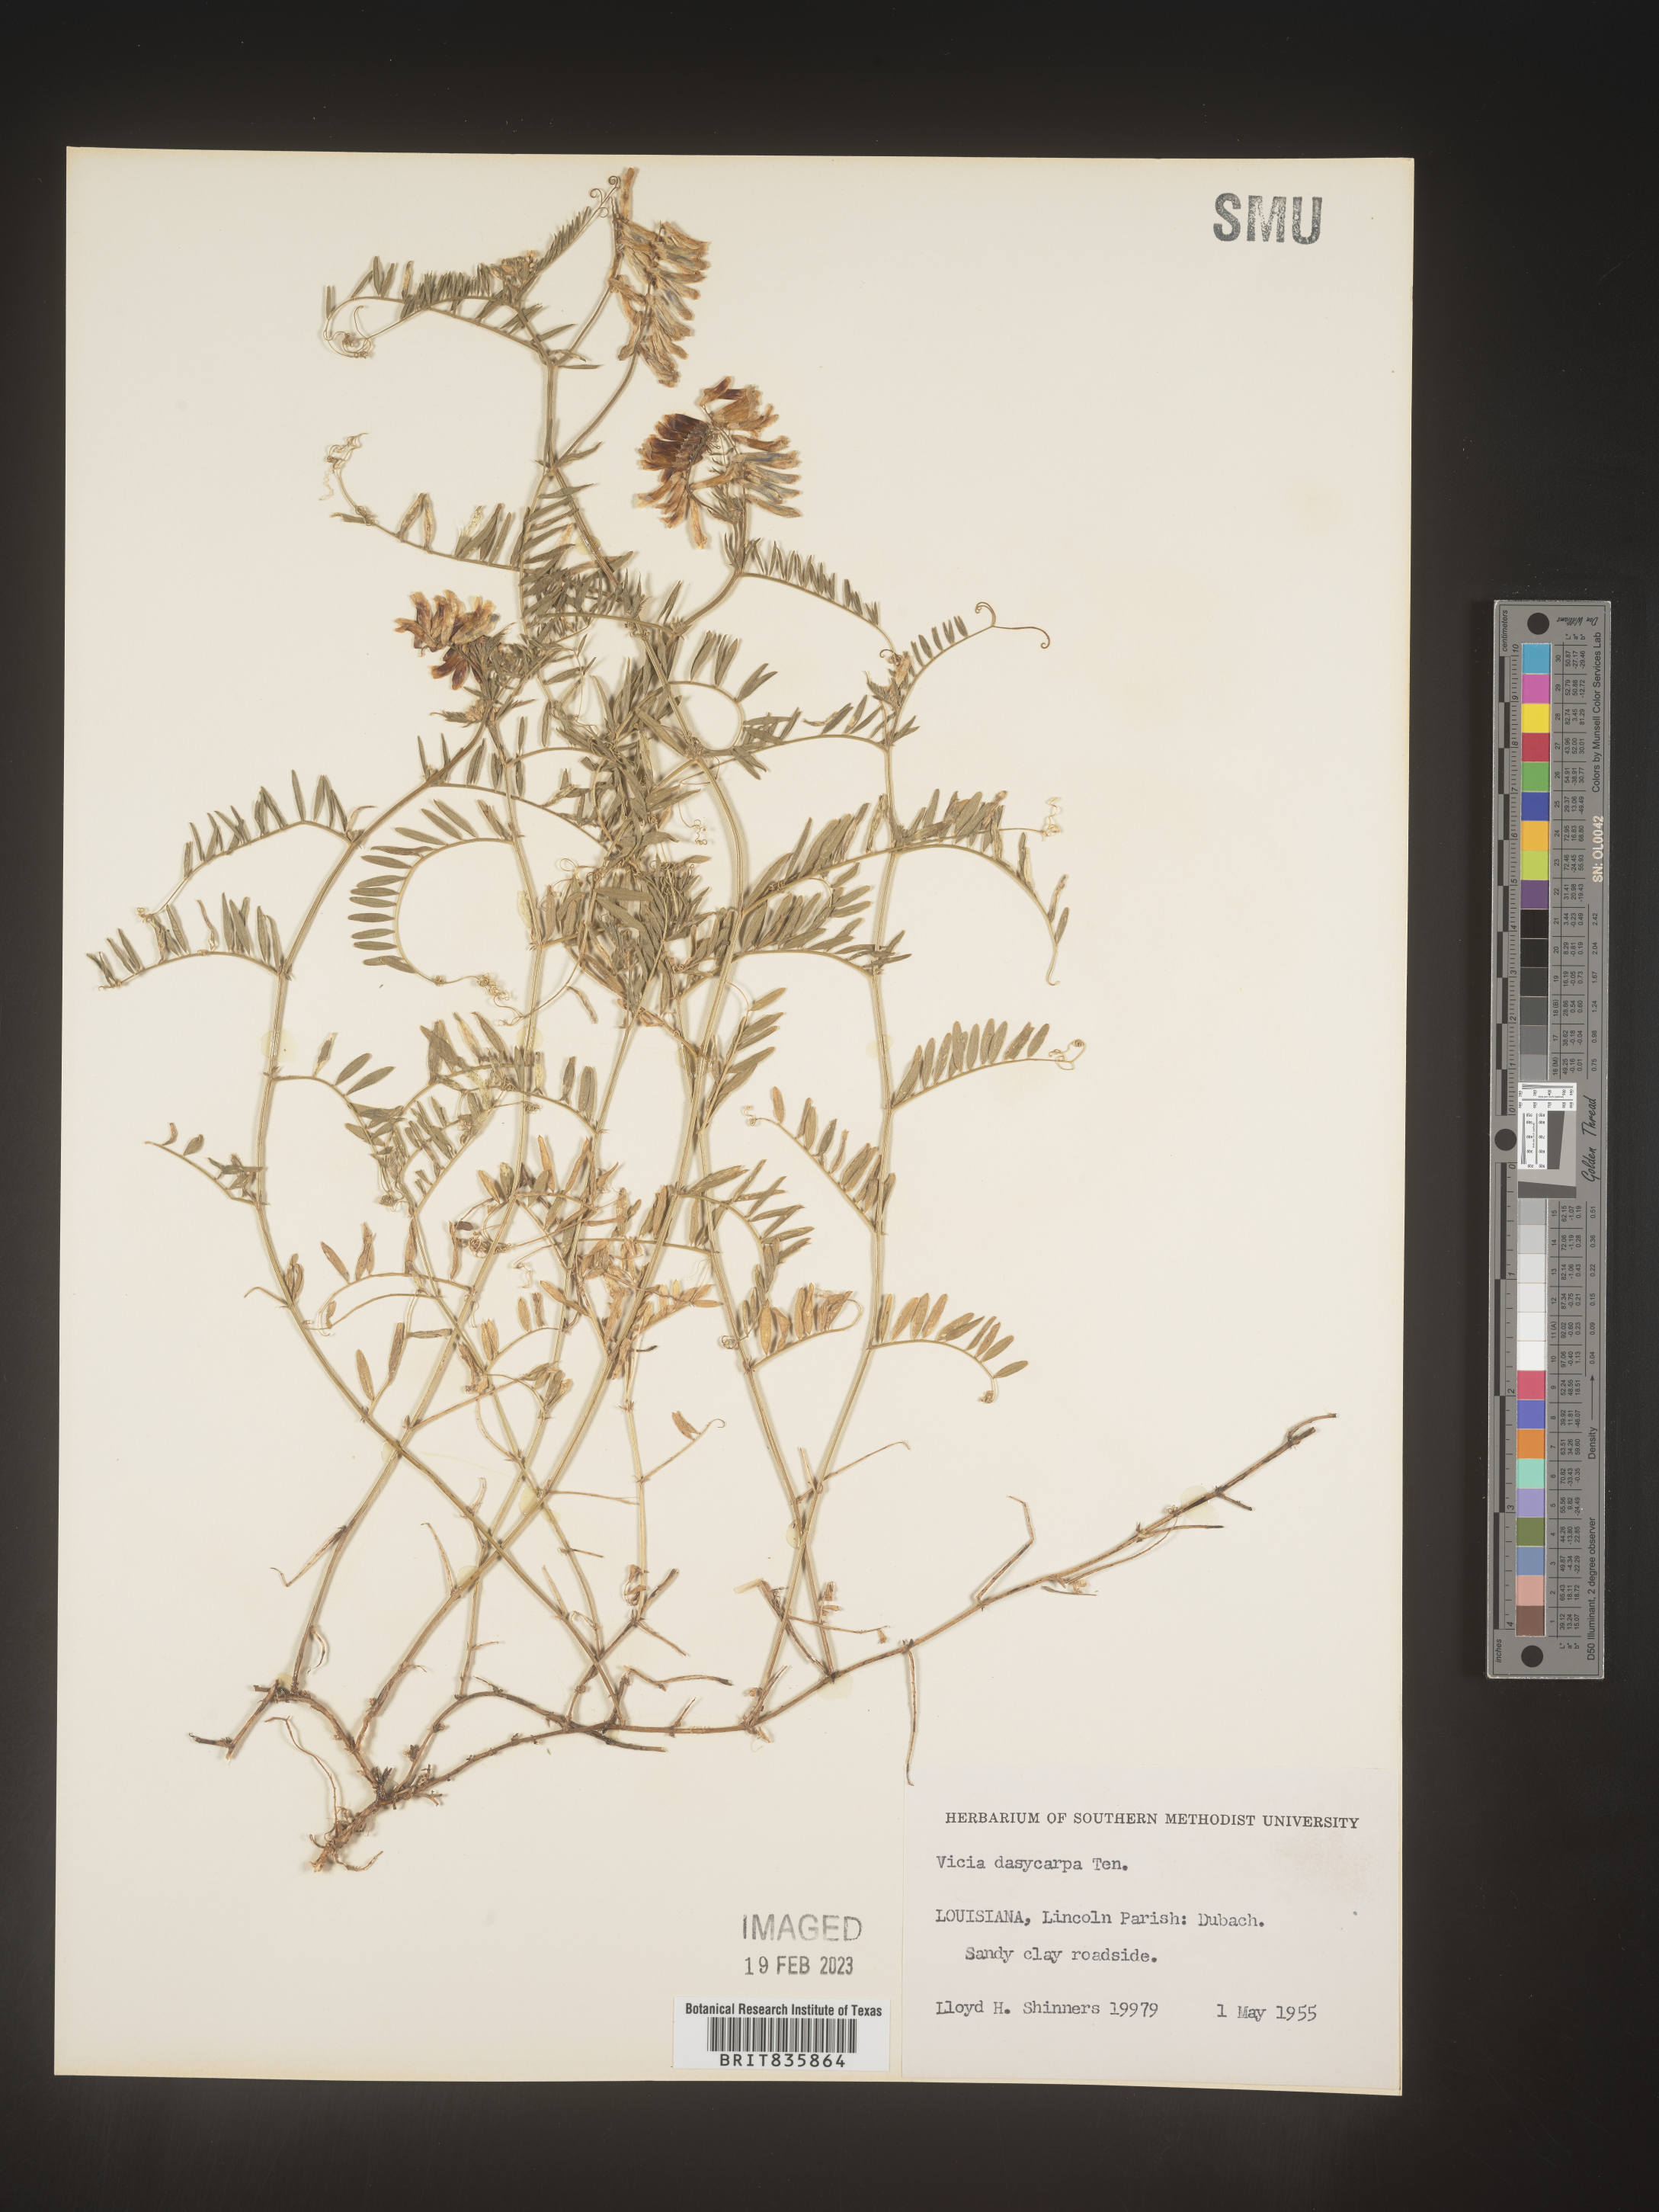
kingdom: Plantae
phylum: Tracheophyta
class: Magnoliopsida
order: Fabales
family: Fabaceae
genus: Vicia
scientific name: Vicia villosa
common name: Fodder vetch
